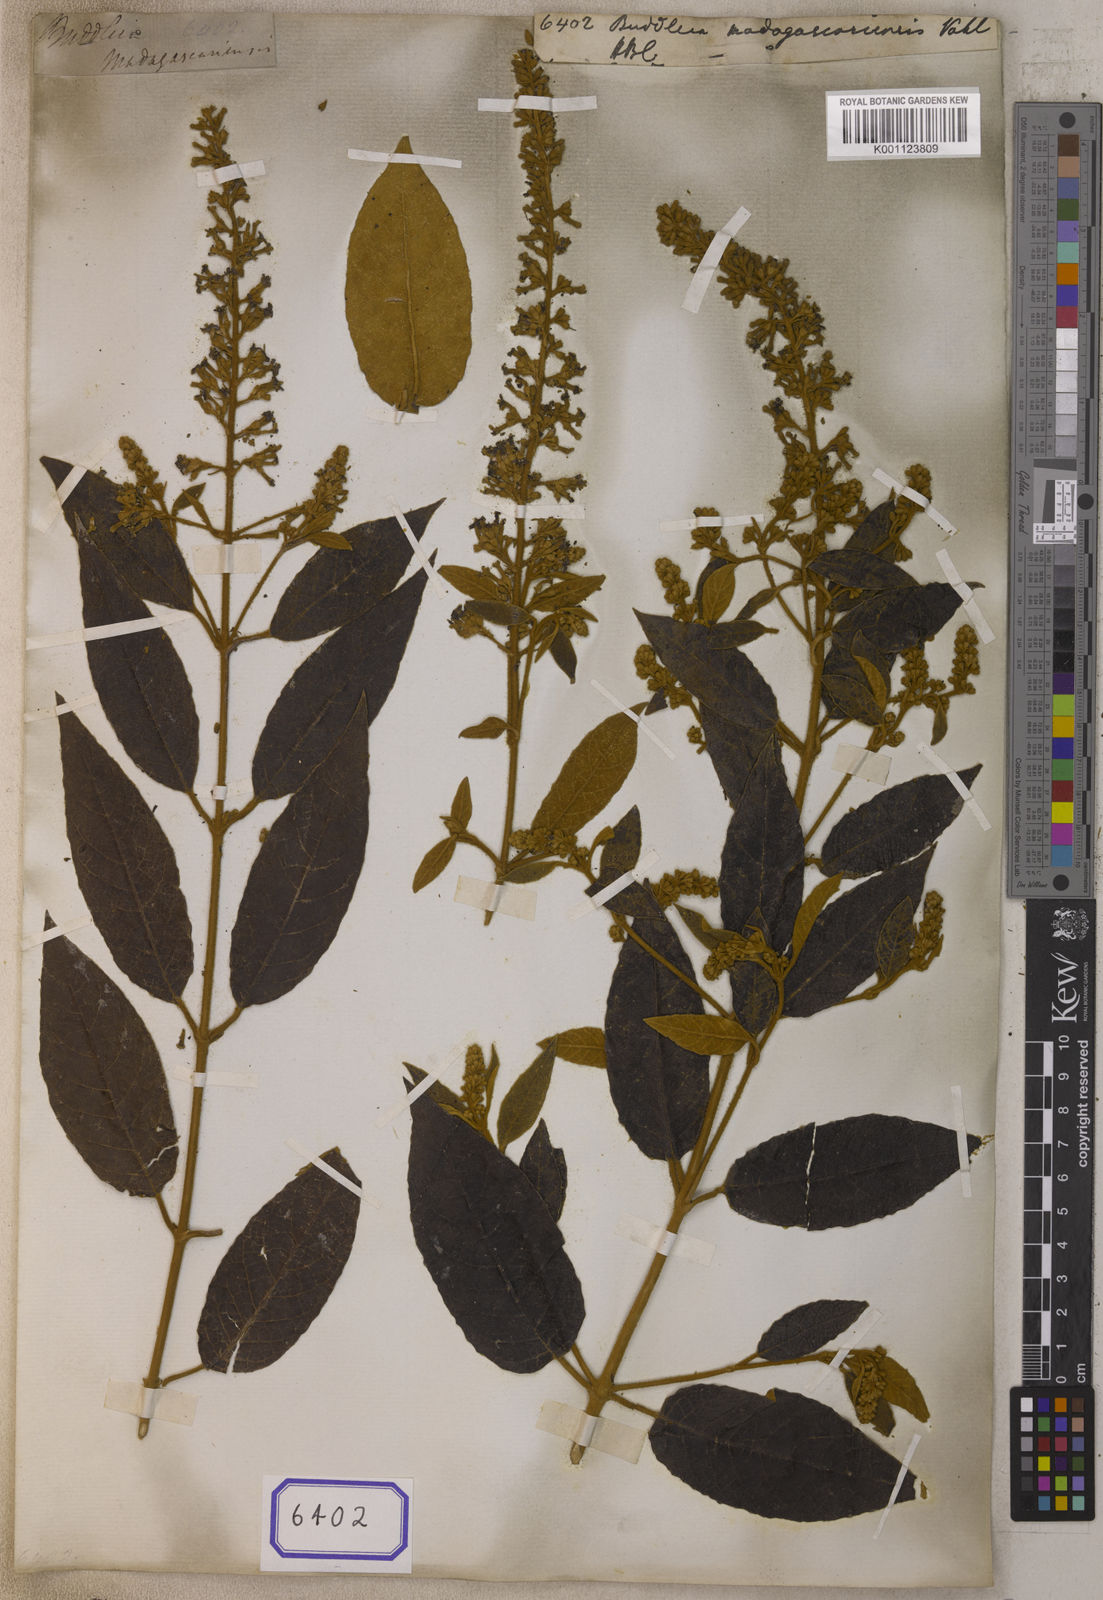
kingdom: Plantae
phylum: Tracheophyta
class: Magnoliopsida
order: Lamiales
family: Scrophulariaceae
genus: Buddleja
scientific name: Buddleja
